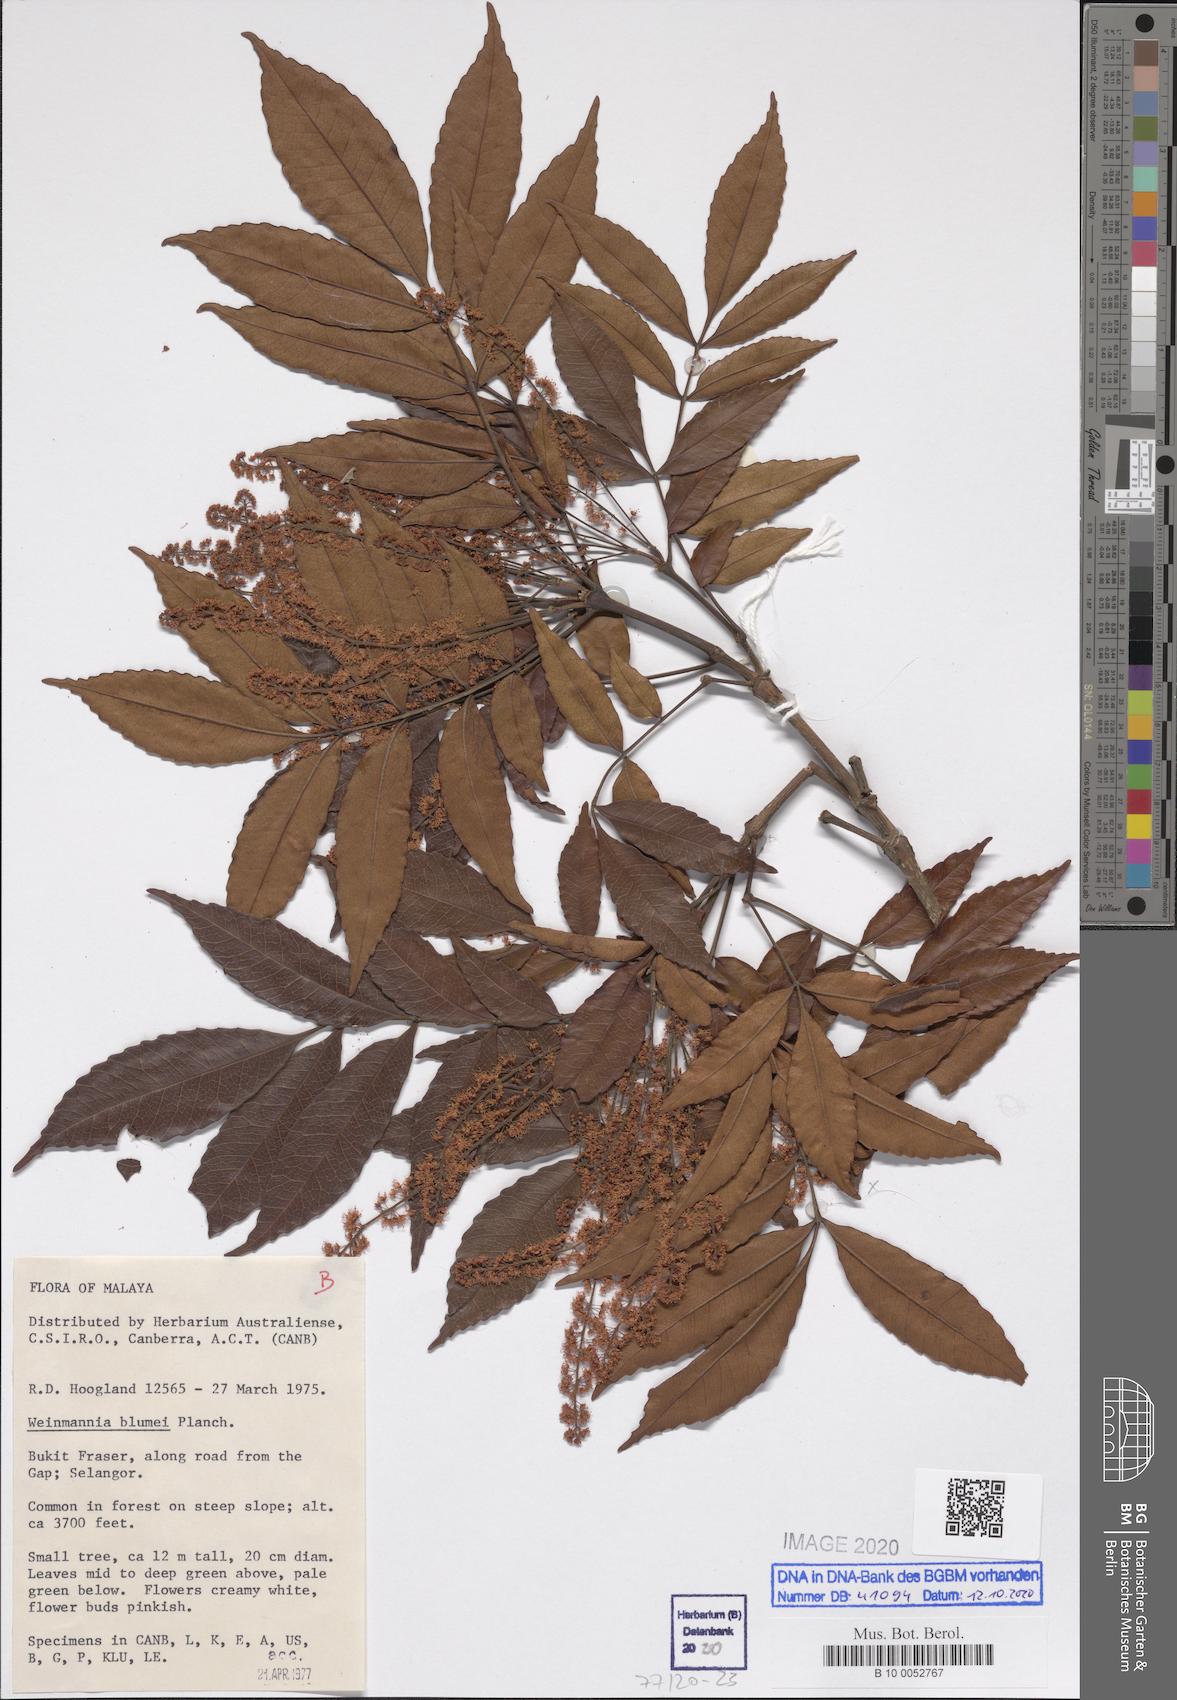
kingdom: Plantae
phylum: Tracheophyta
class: Magnoliopsida
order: Oxalidales
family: Cunoniaceae
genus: Pterophylla
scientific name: Pterophylla fraxinea
